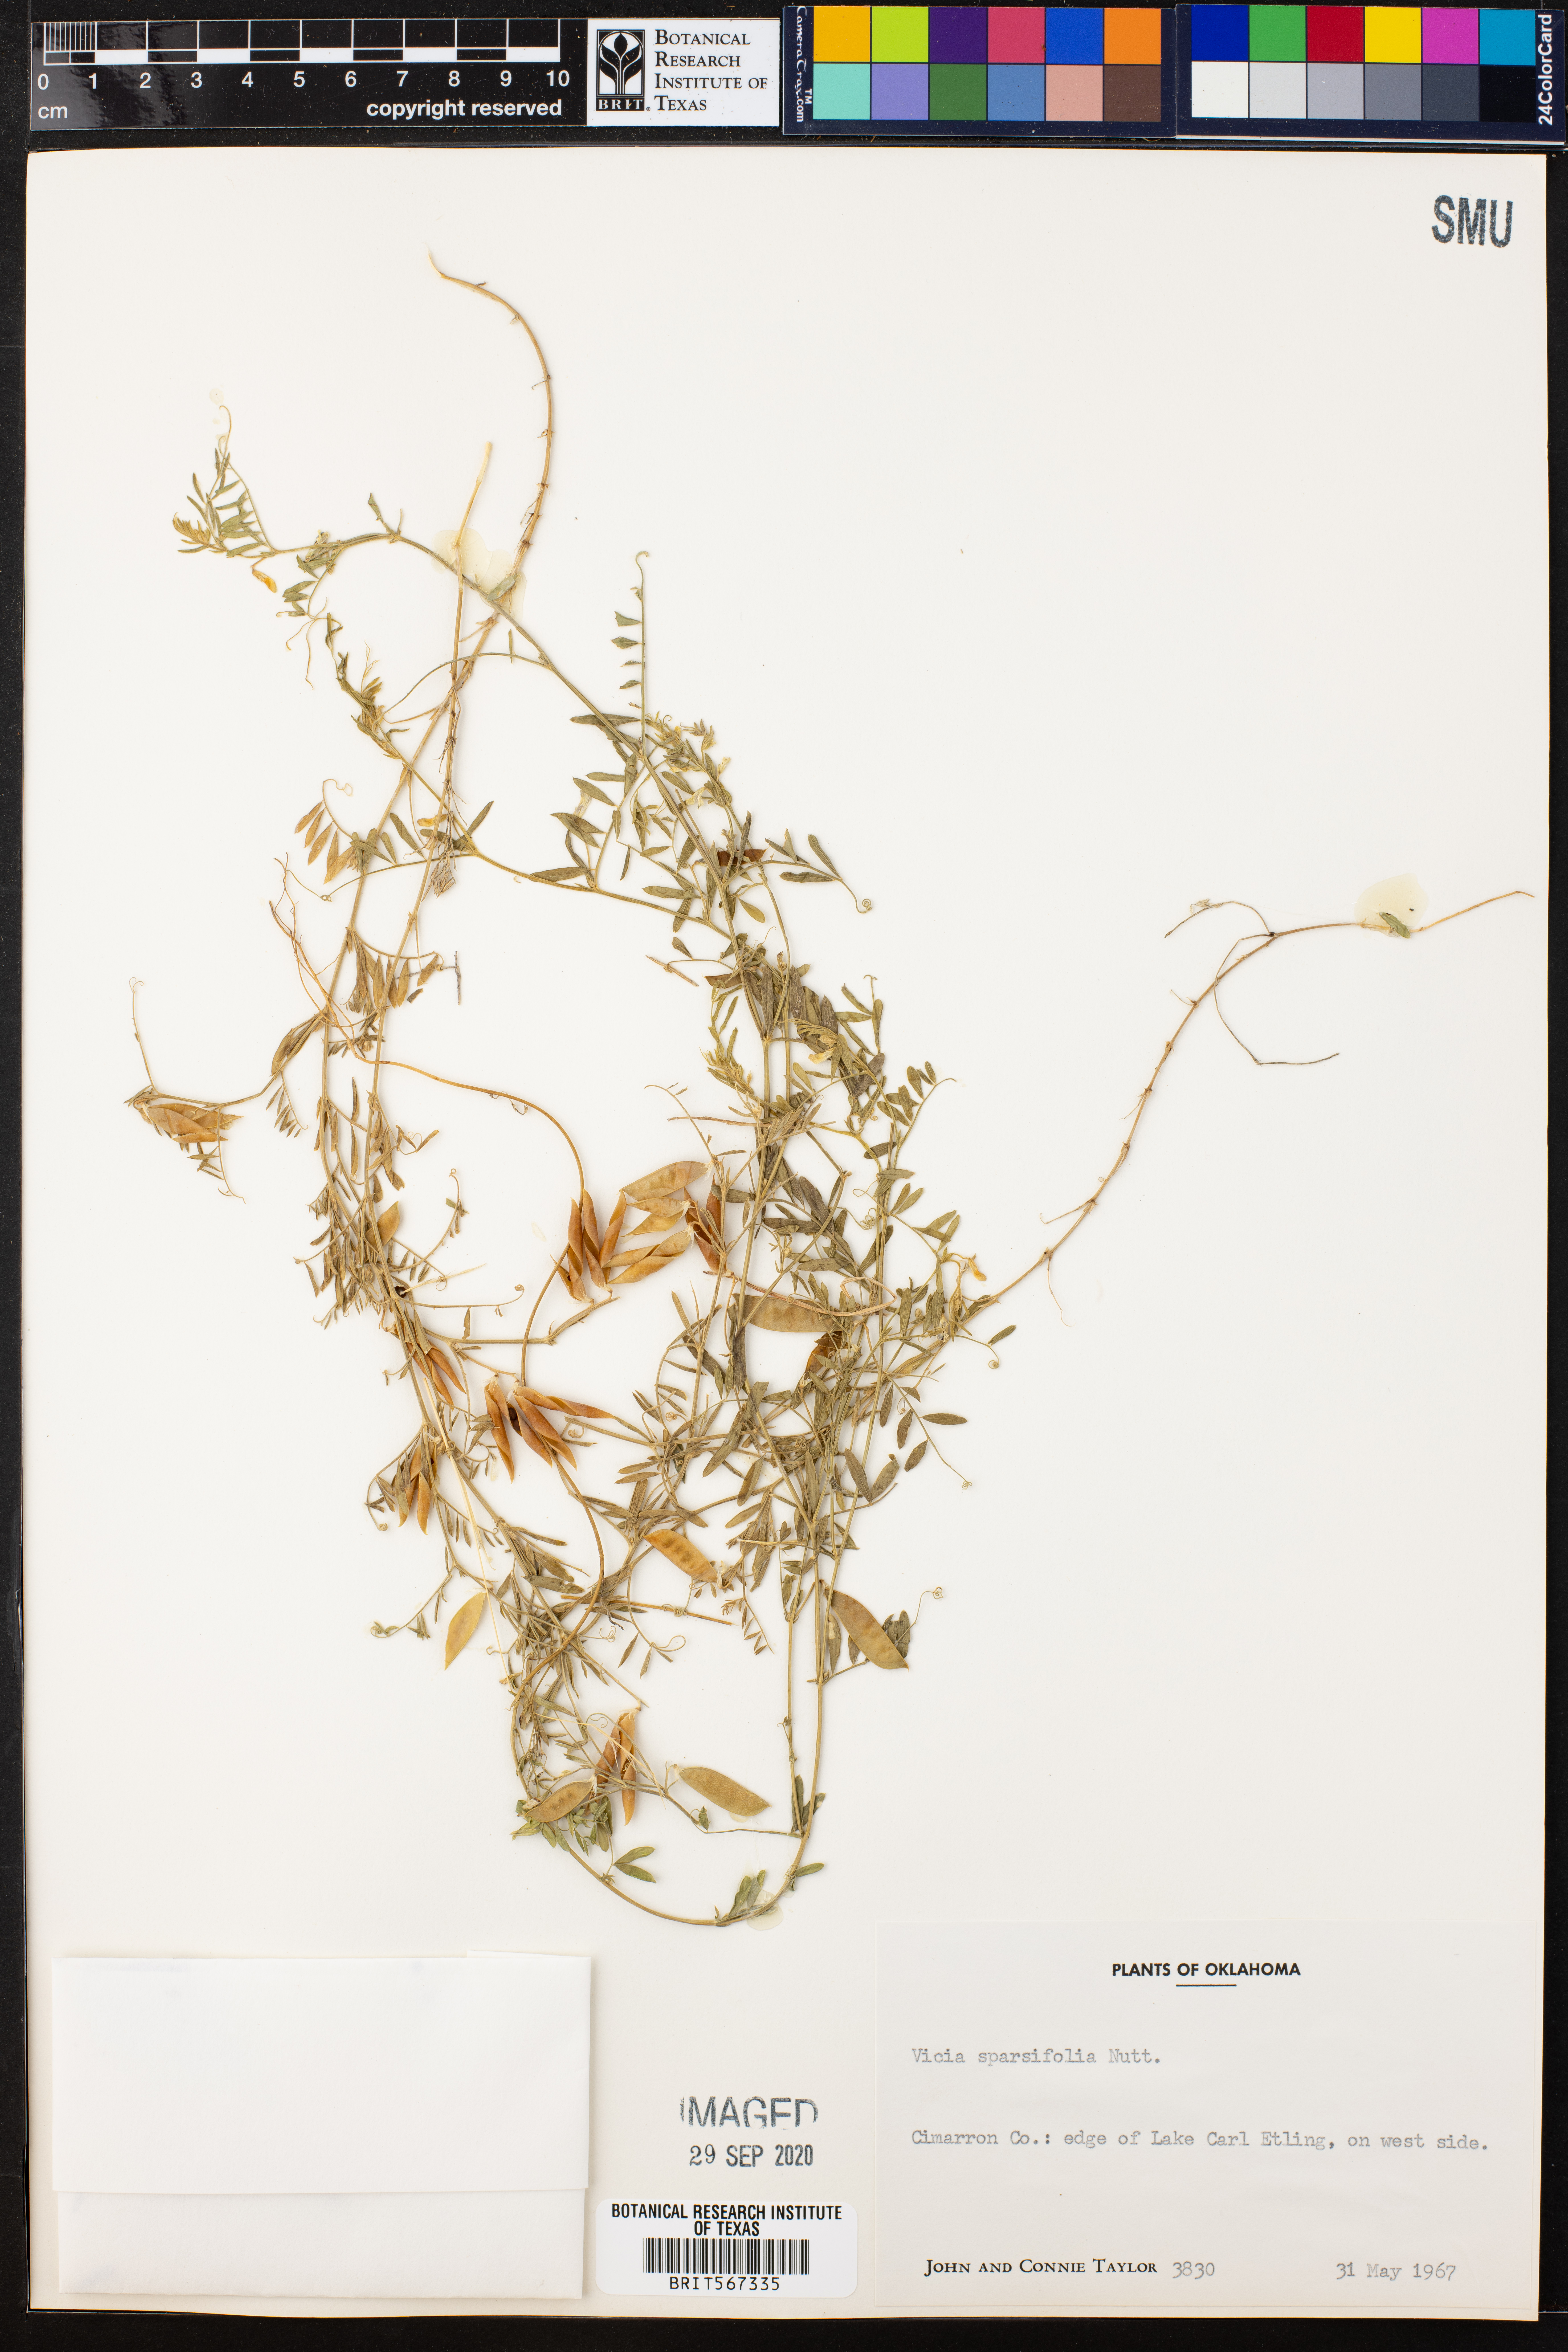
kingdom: Plantae
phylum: Tracheophyta
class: Magnoliopsida
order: Fabales
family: Fabaceae
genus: Vicia
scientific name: Vicia americana
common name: American vetch
